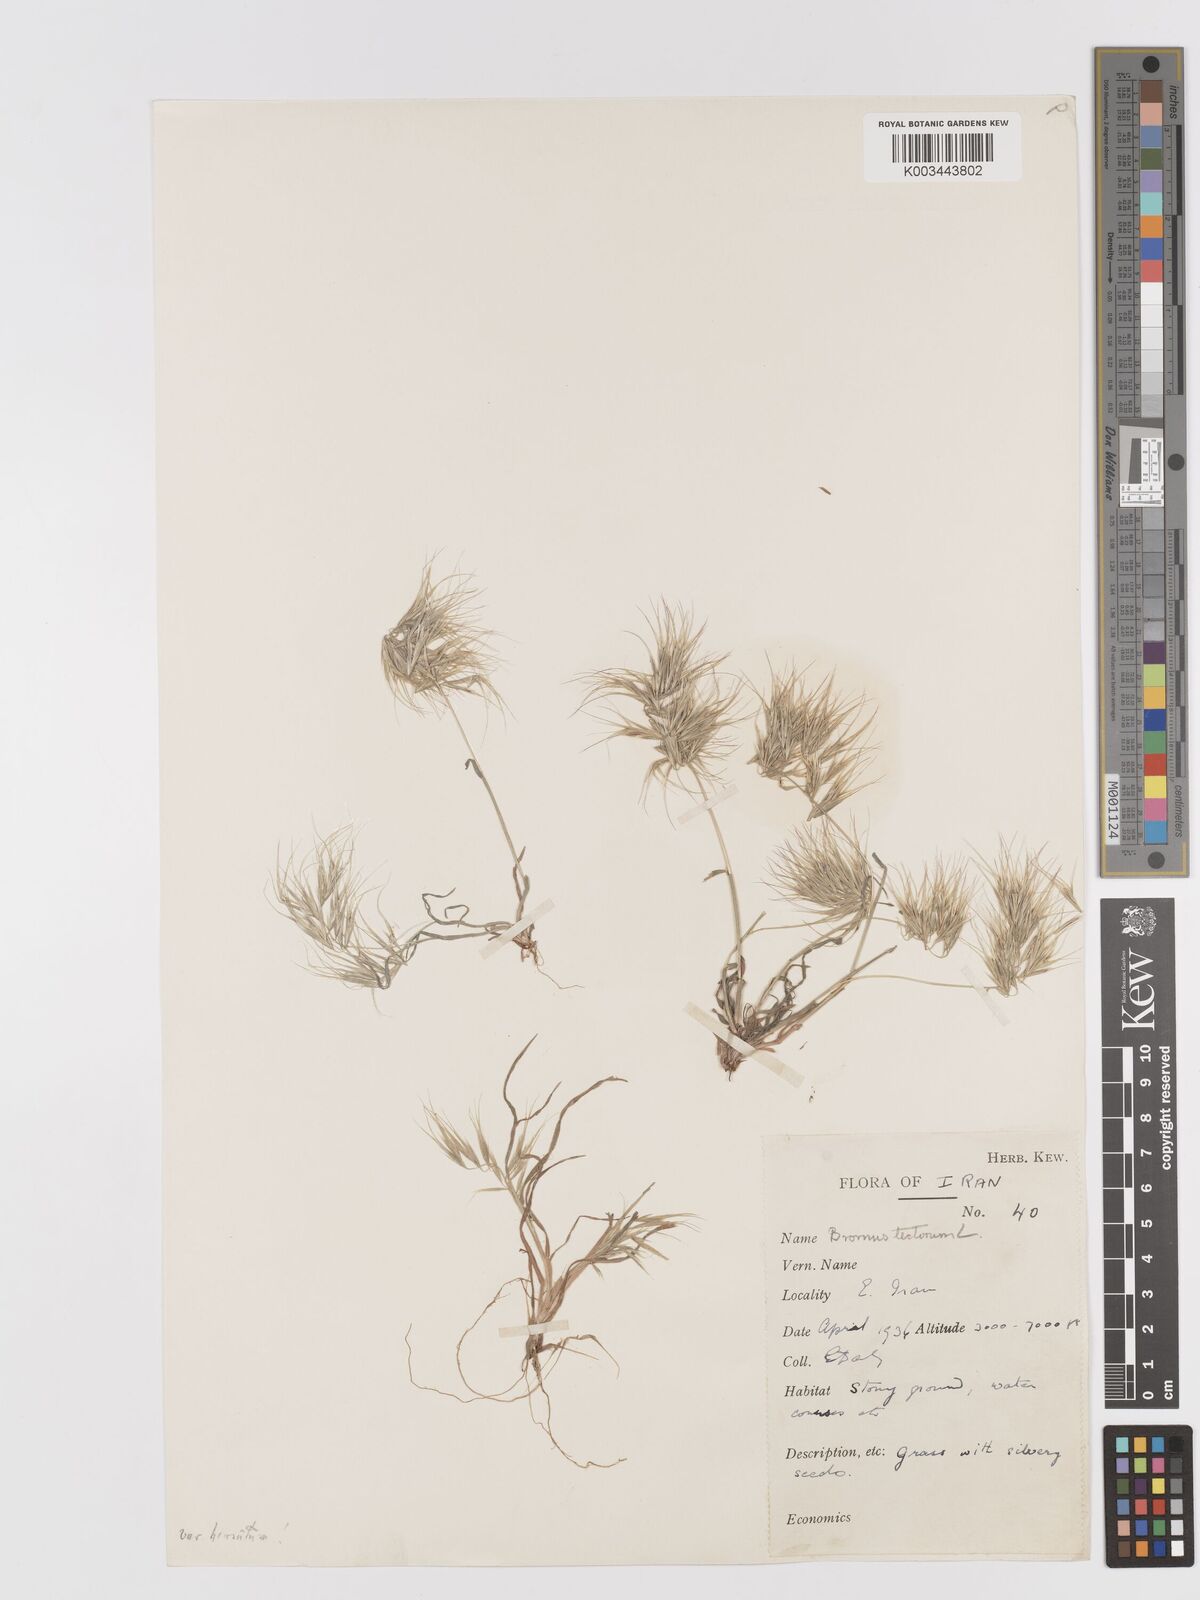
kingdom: Plantae
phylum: Tracheophyta
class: Liliopsida
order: Poales
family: Poaceae
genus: Bromus
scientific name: Bromus tectorum
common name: Cheatgrass
